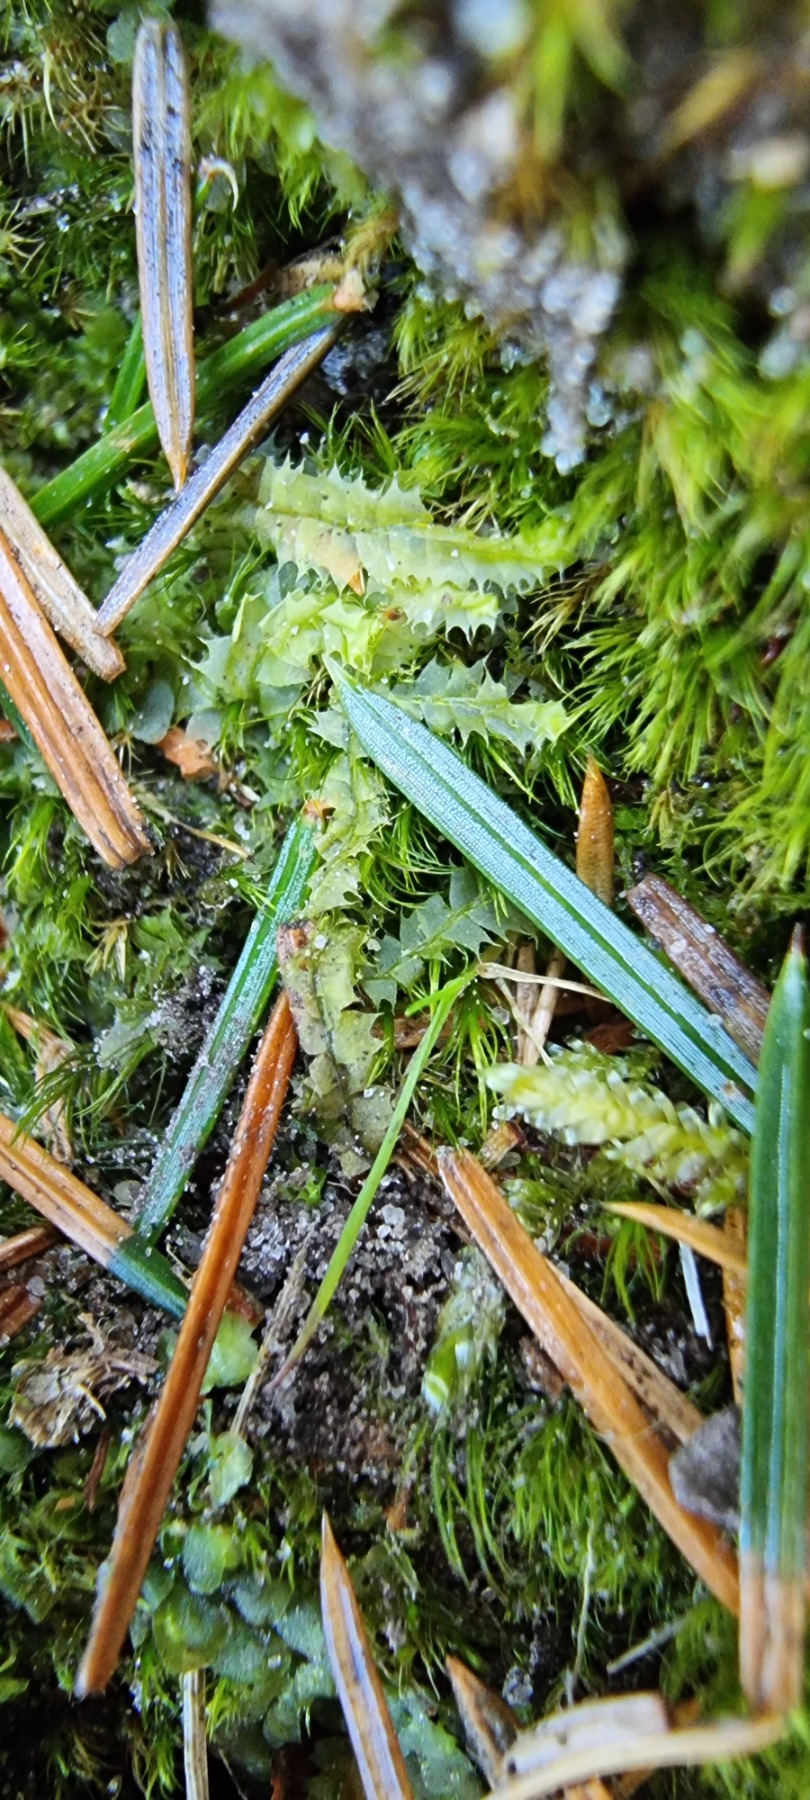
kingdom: Plantae
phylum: Marchantiophyta
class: Jungermanniopsida
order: Jungermanniales
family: Lophocoleaceae
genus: Lophocolea
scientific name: Lophocolea bidentata
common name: Sylspidset kamsvøb
